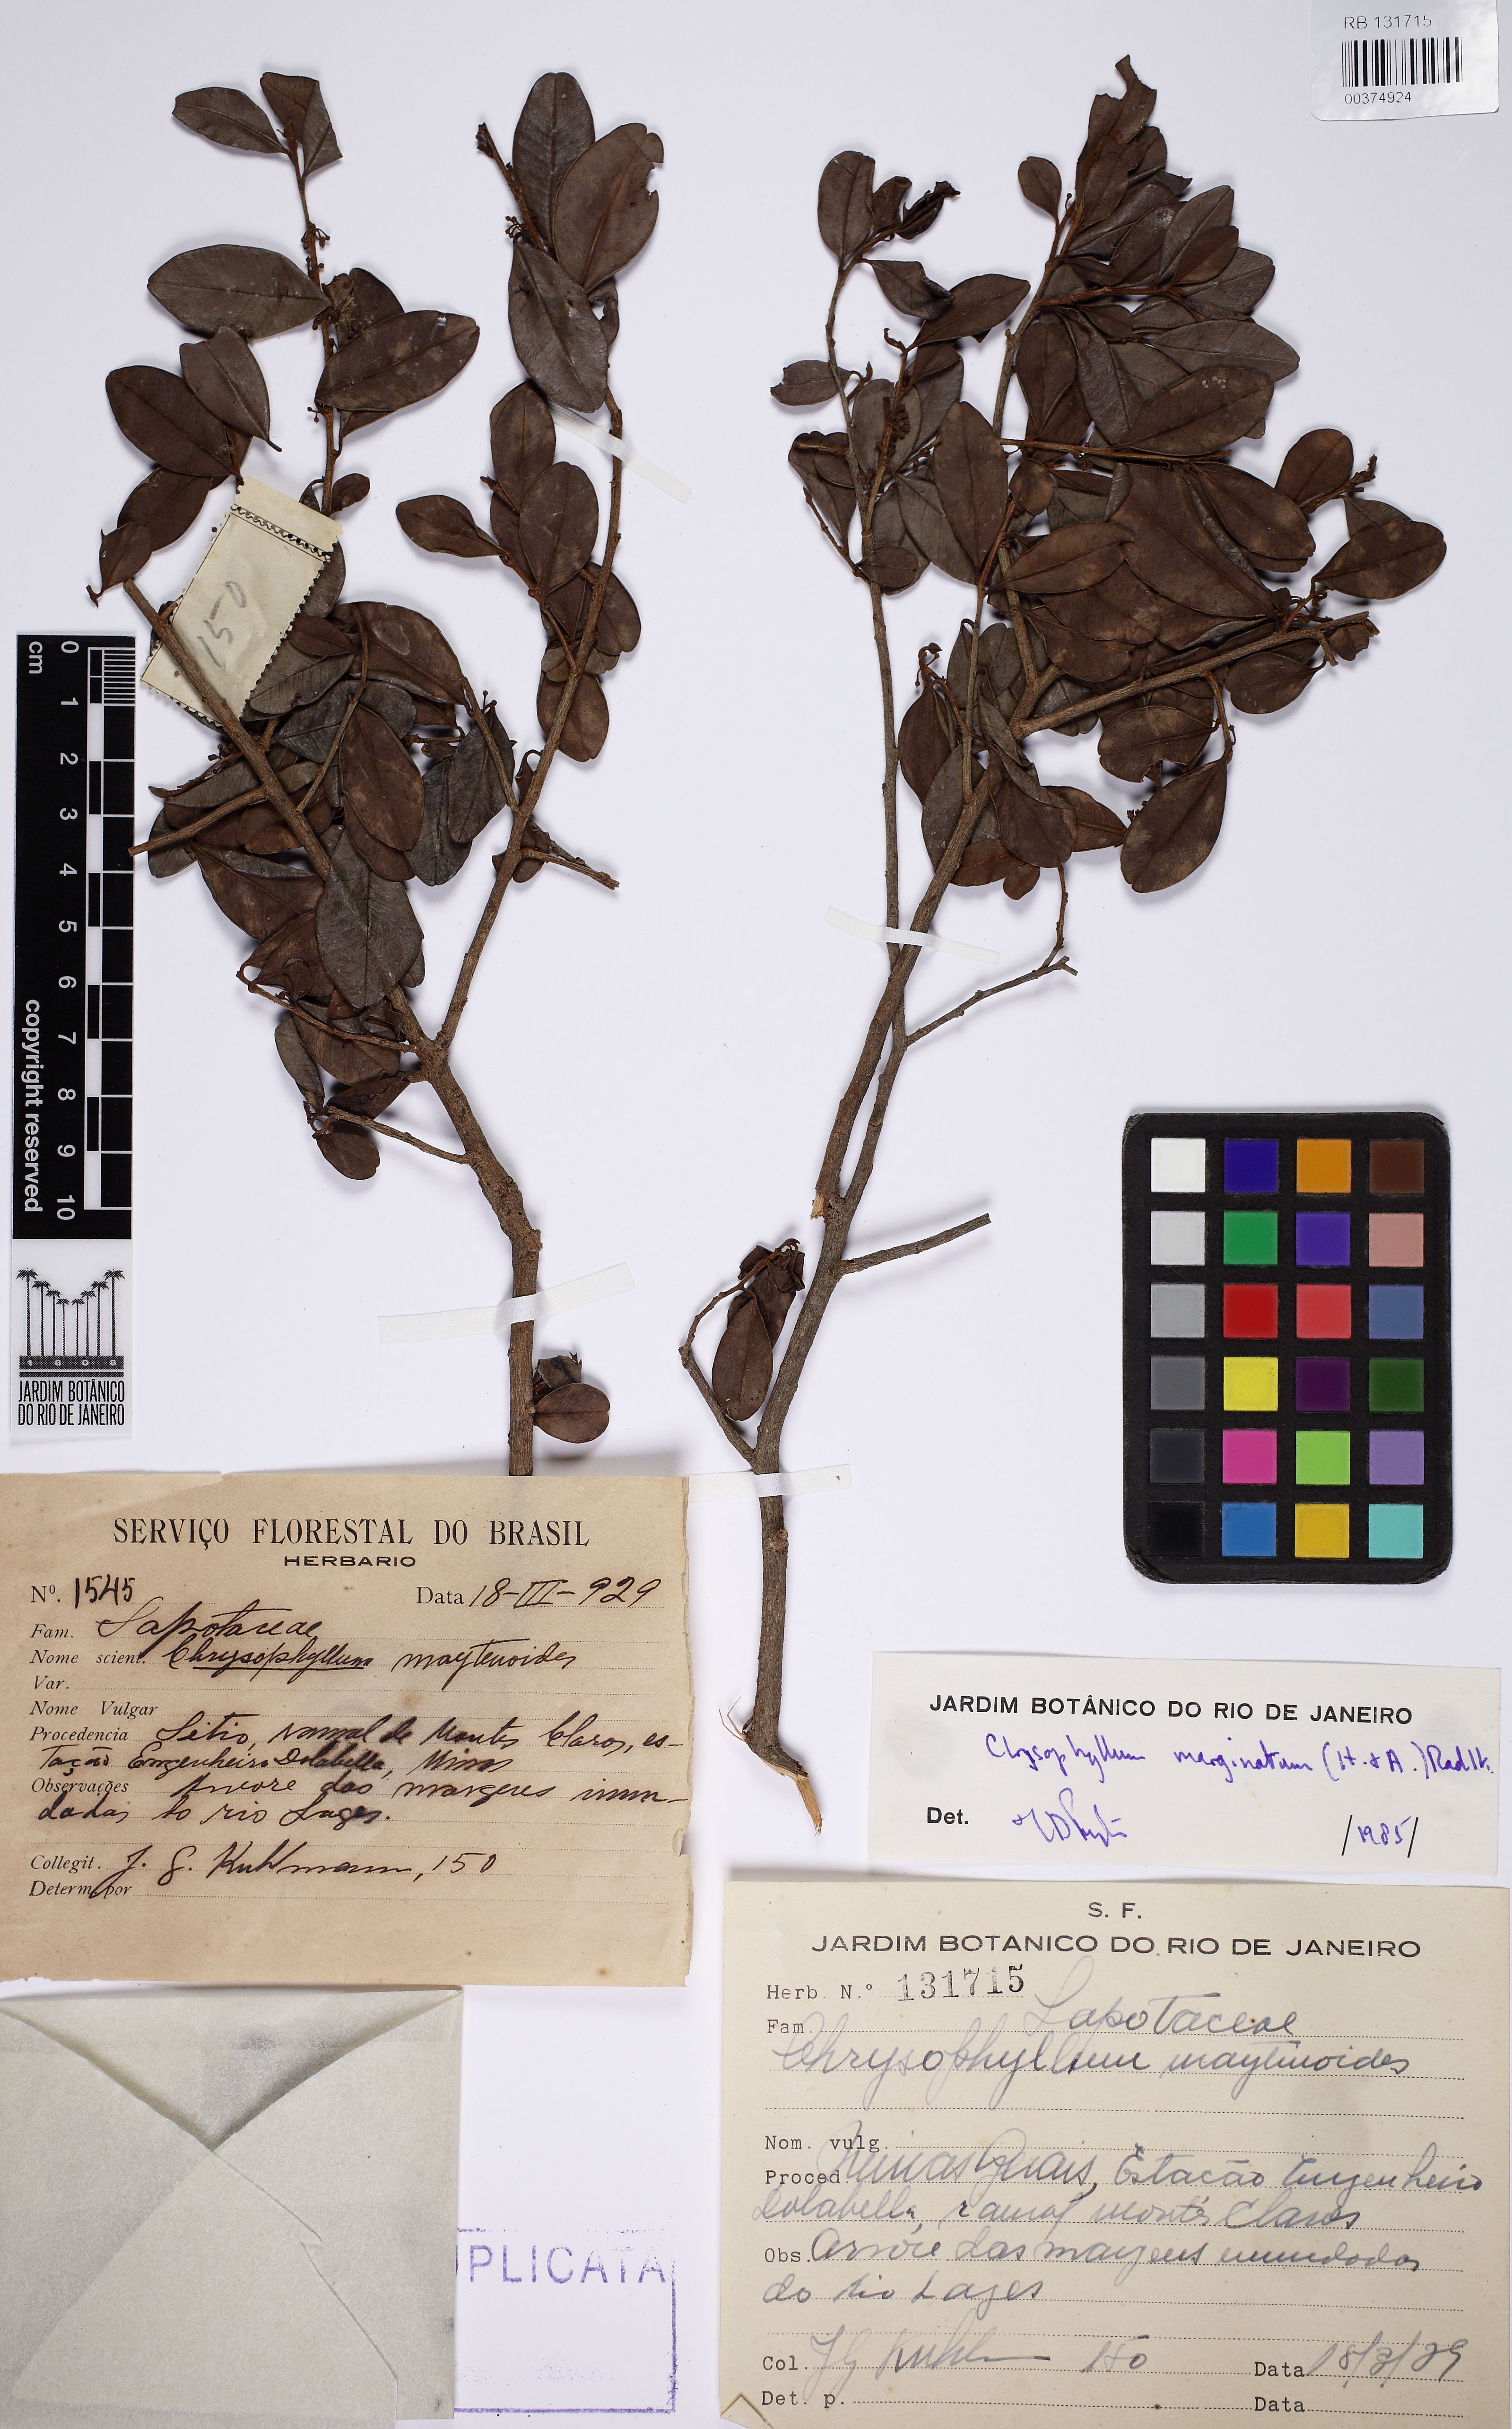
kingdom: Plantae
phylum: Tracheophyta
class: Magnoliopsida
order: Ericales
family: Sapotaceae
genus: Chrysophyllum
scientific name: Chrysophyllum marginatum
